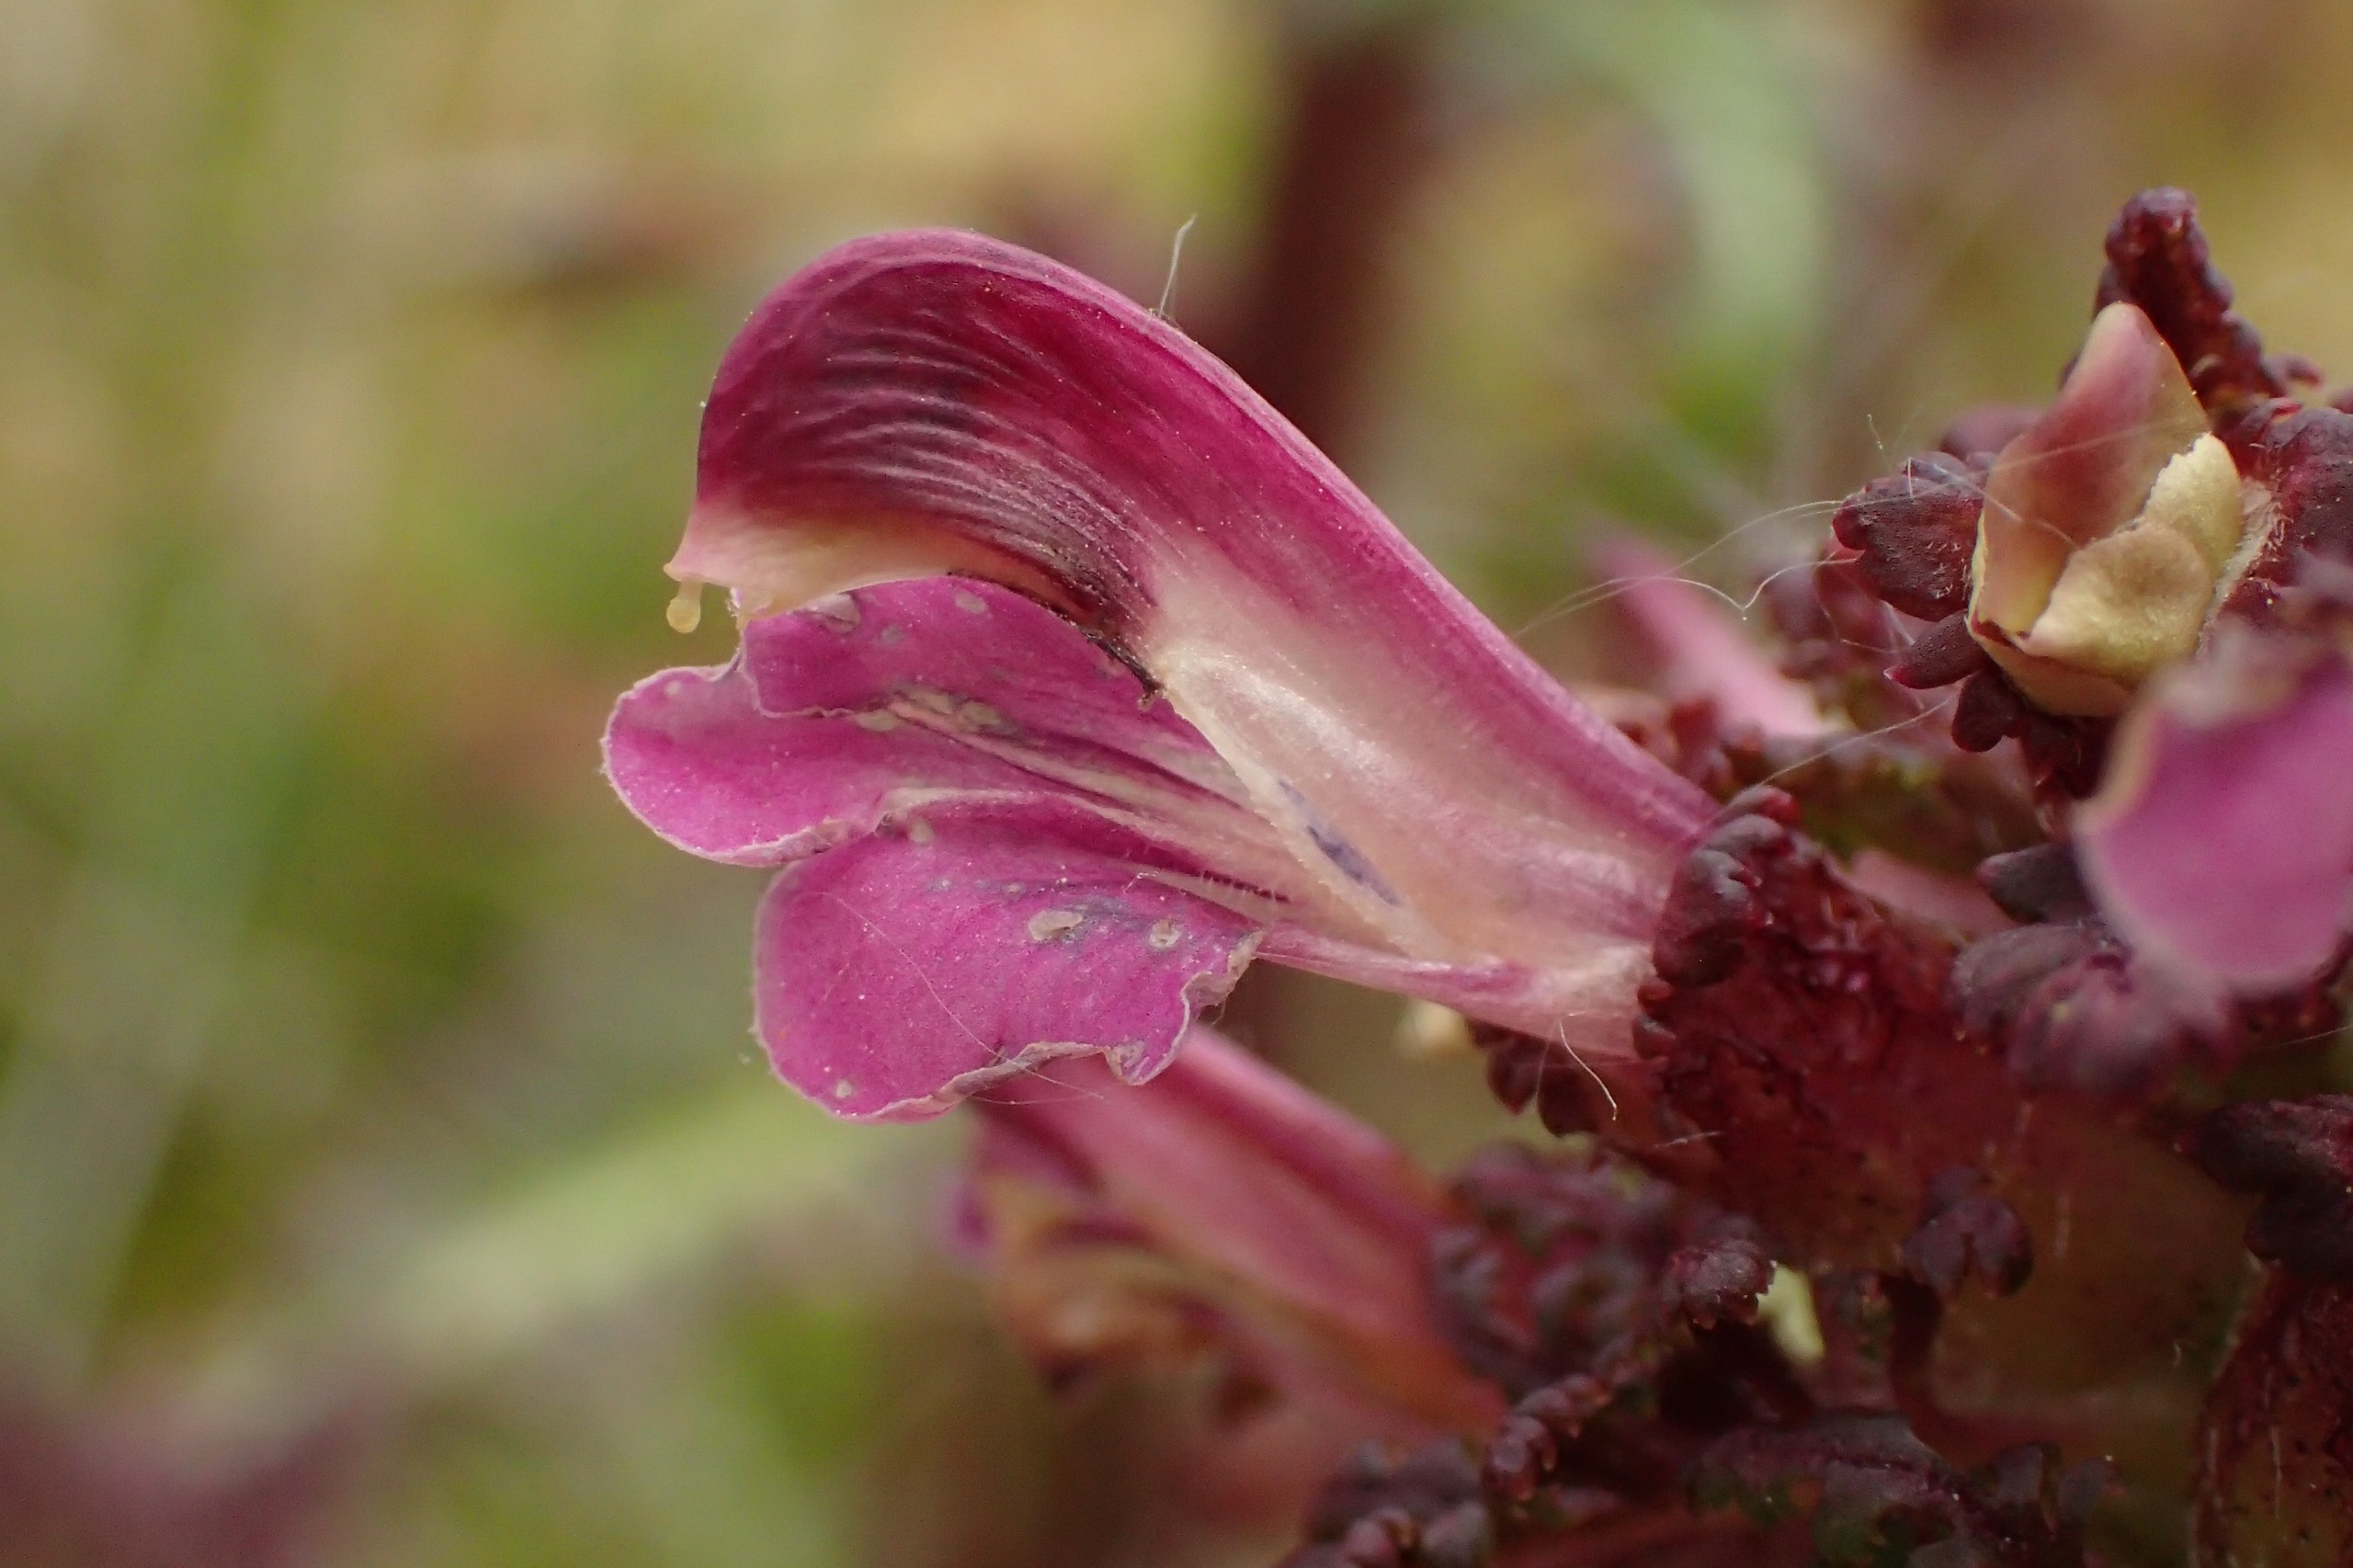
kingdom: Plantae
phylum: Tracheophyta
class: Magnoliopsida
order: Lamiales
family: Orobanchaceae
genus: Pedicularis
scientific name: Pedicularis palustris
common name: Eng-troldurt
